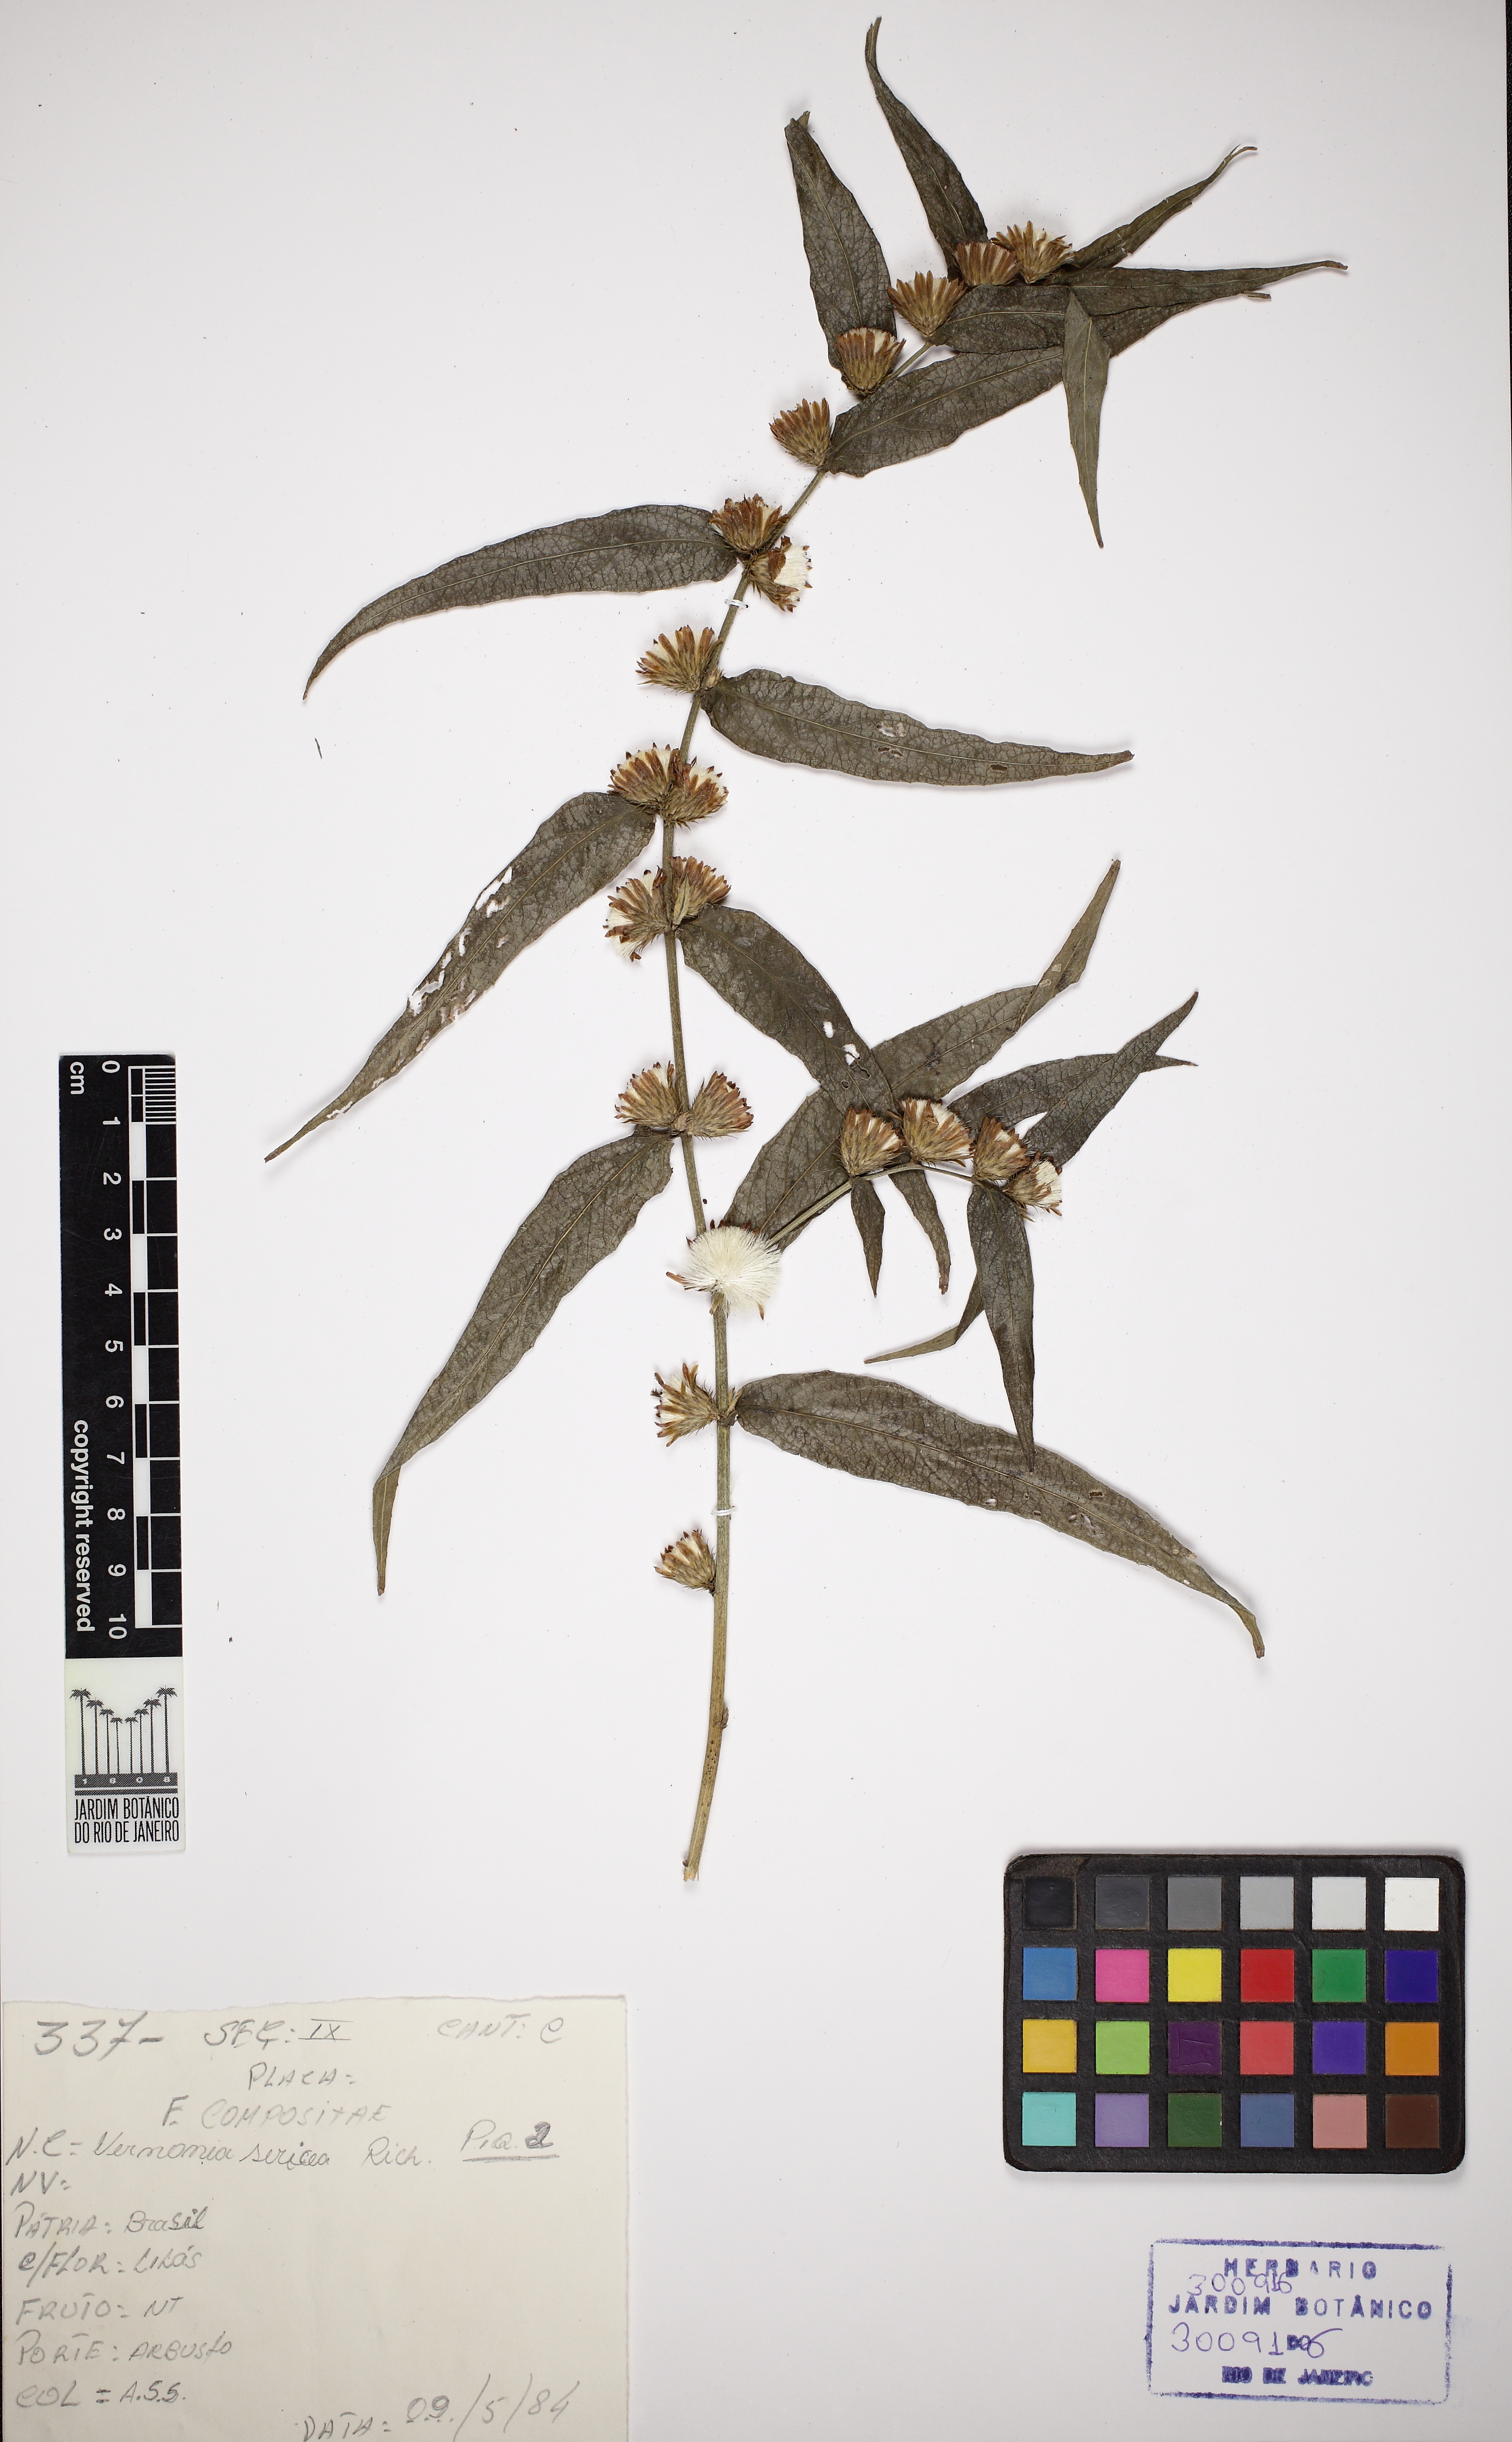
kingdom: Plantae
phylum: Tracheophyta
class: Magnoliopsida
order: Asterales
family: Asteraceae
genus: Lepidaploa
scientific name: Lepidaploa persicifolia
